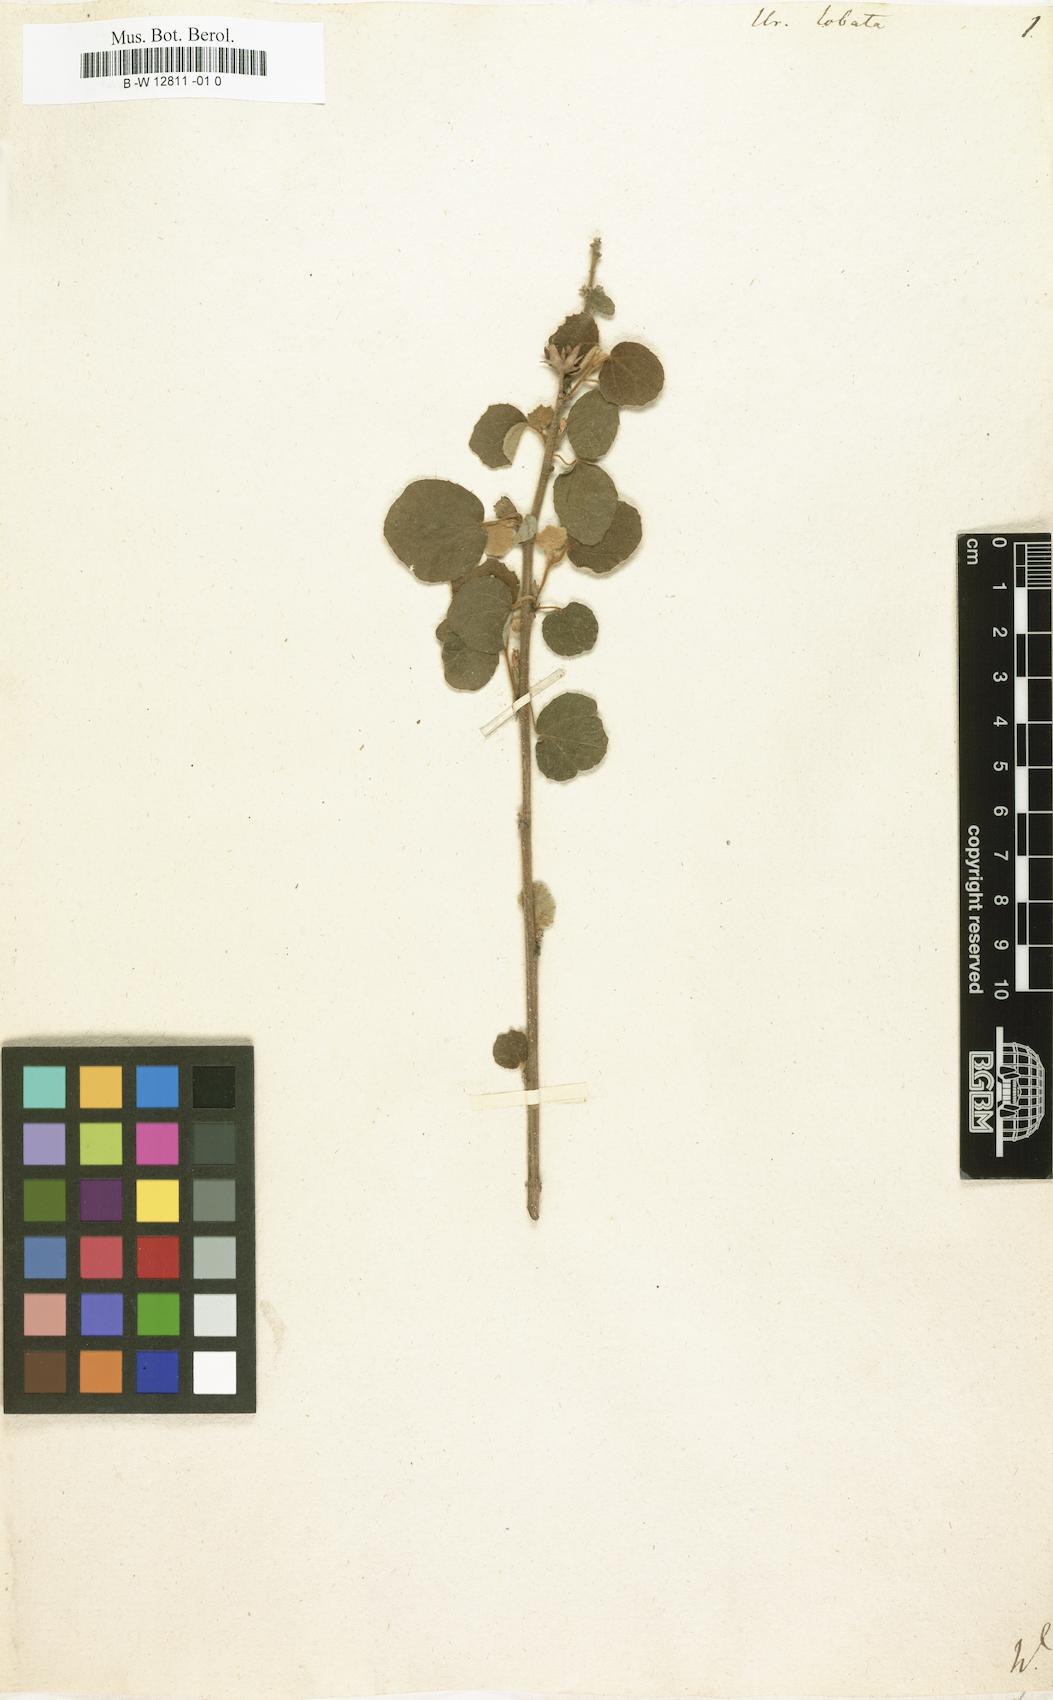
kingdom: Plantae
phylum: Tracheophyta
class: Magnoliopsida
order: Malvales
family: Malvaceae
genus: Urena
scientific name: Urena lobata
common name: Caesarweed
